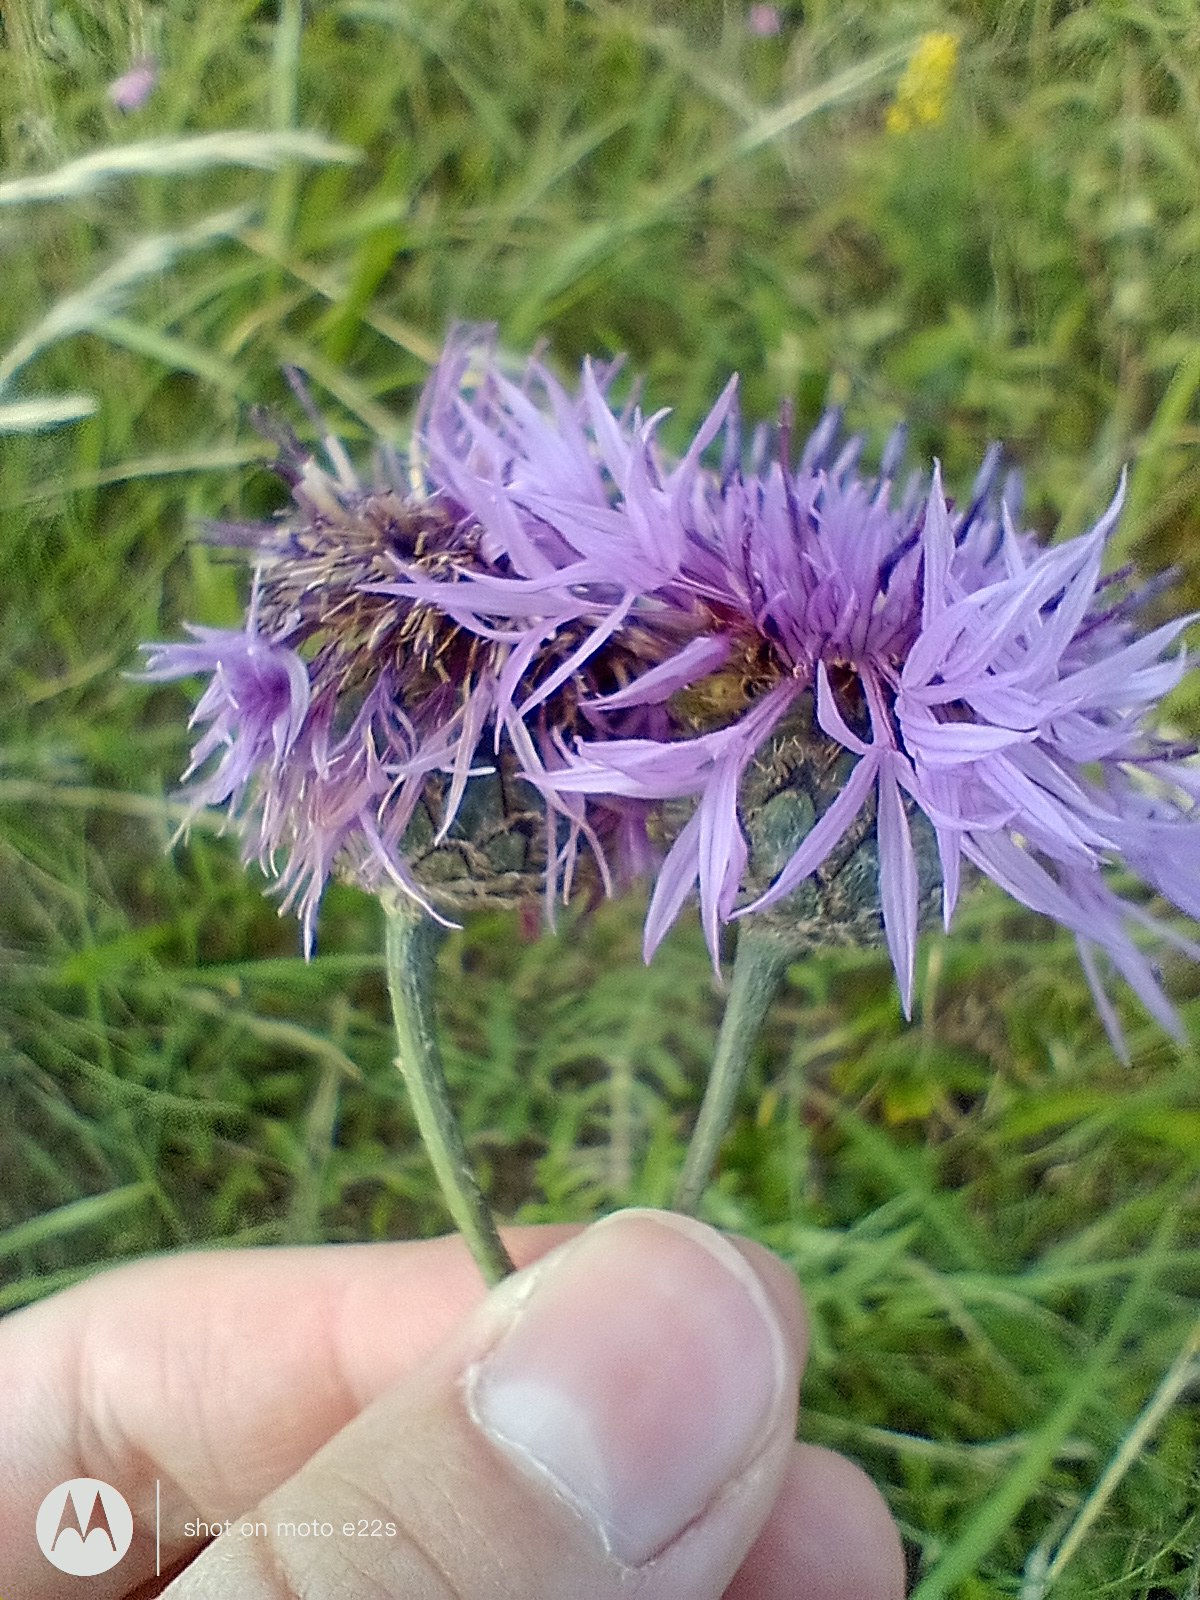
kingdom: Plantae
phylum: Tracheophyta
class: Magnoliopsida
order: Asterales
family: Asteraceae
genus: Centaurea
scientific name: Centaurea scabiosa
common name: Stor knopurt
